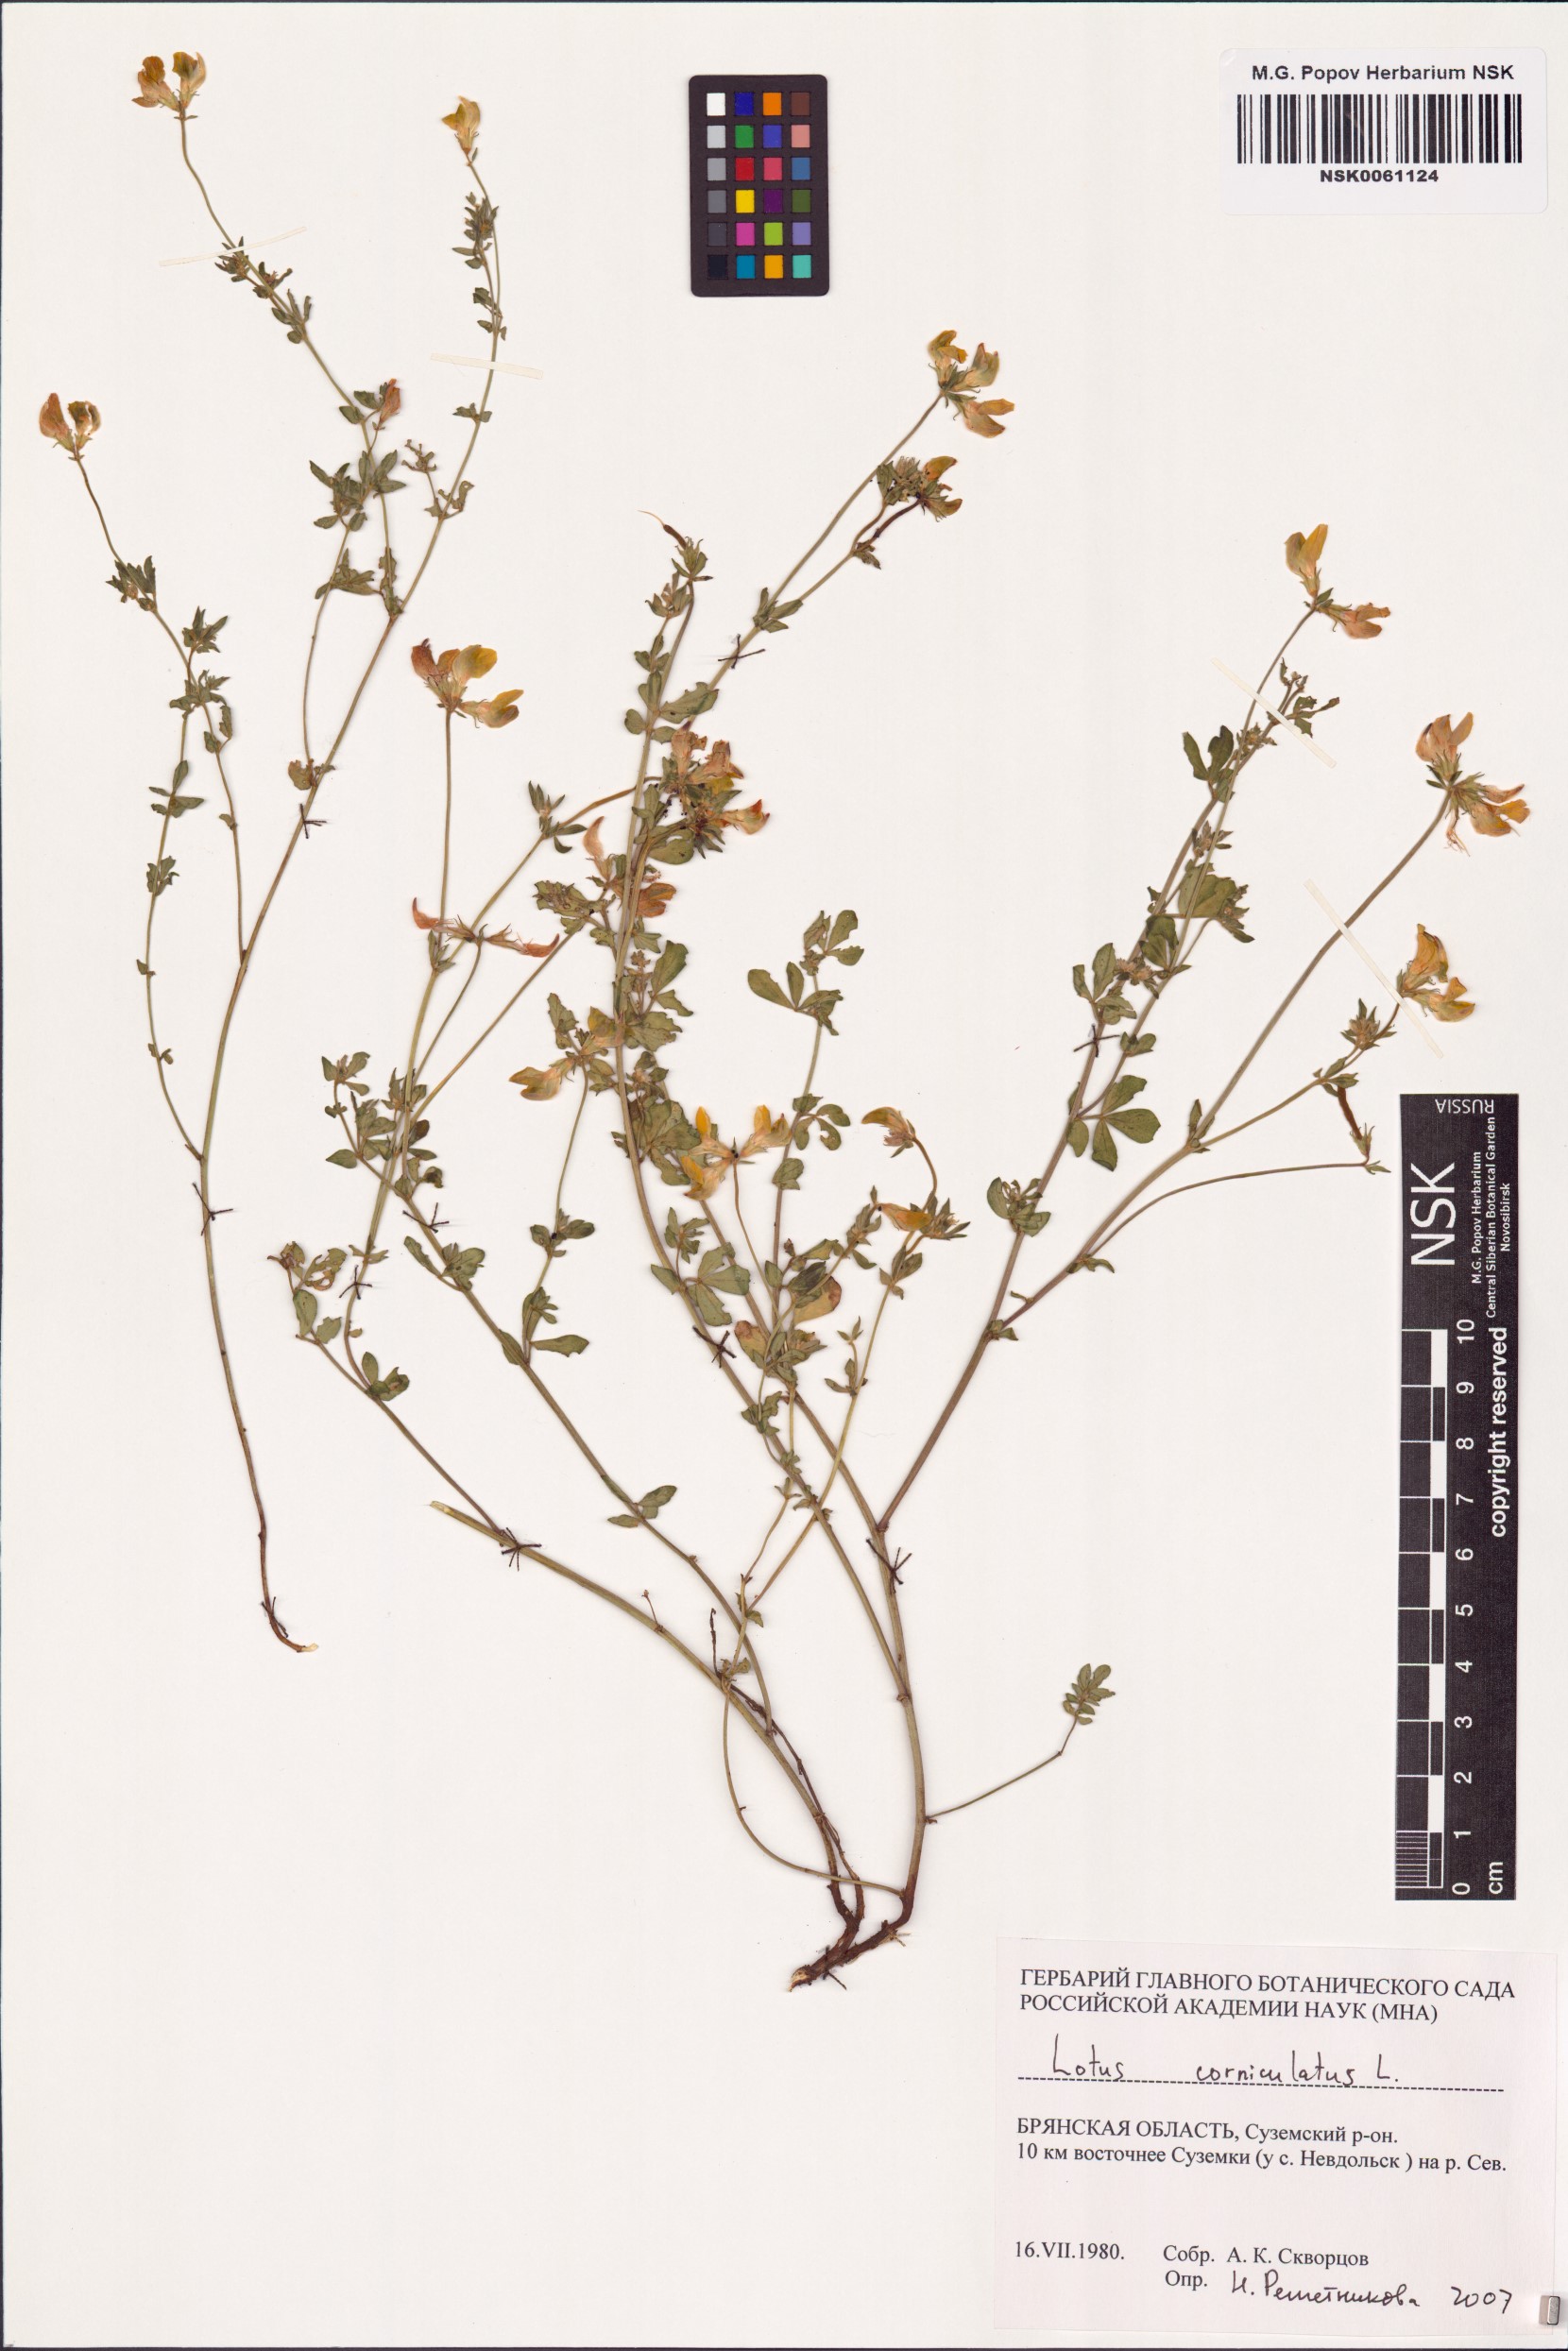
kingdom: Plantae
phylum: Tracheophyta
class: Magnoliopsida
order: Fabales
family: Fabaceae
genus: Lotus
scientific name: Lotus corniculatus
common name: Common bird's-foot-trefoil
